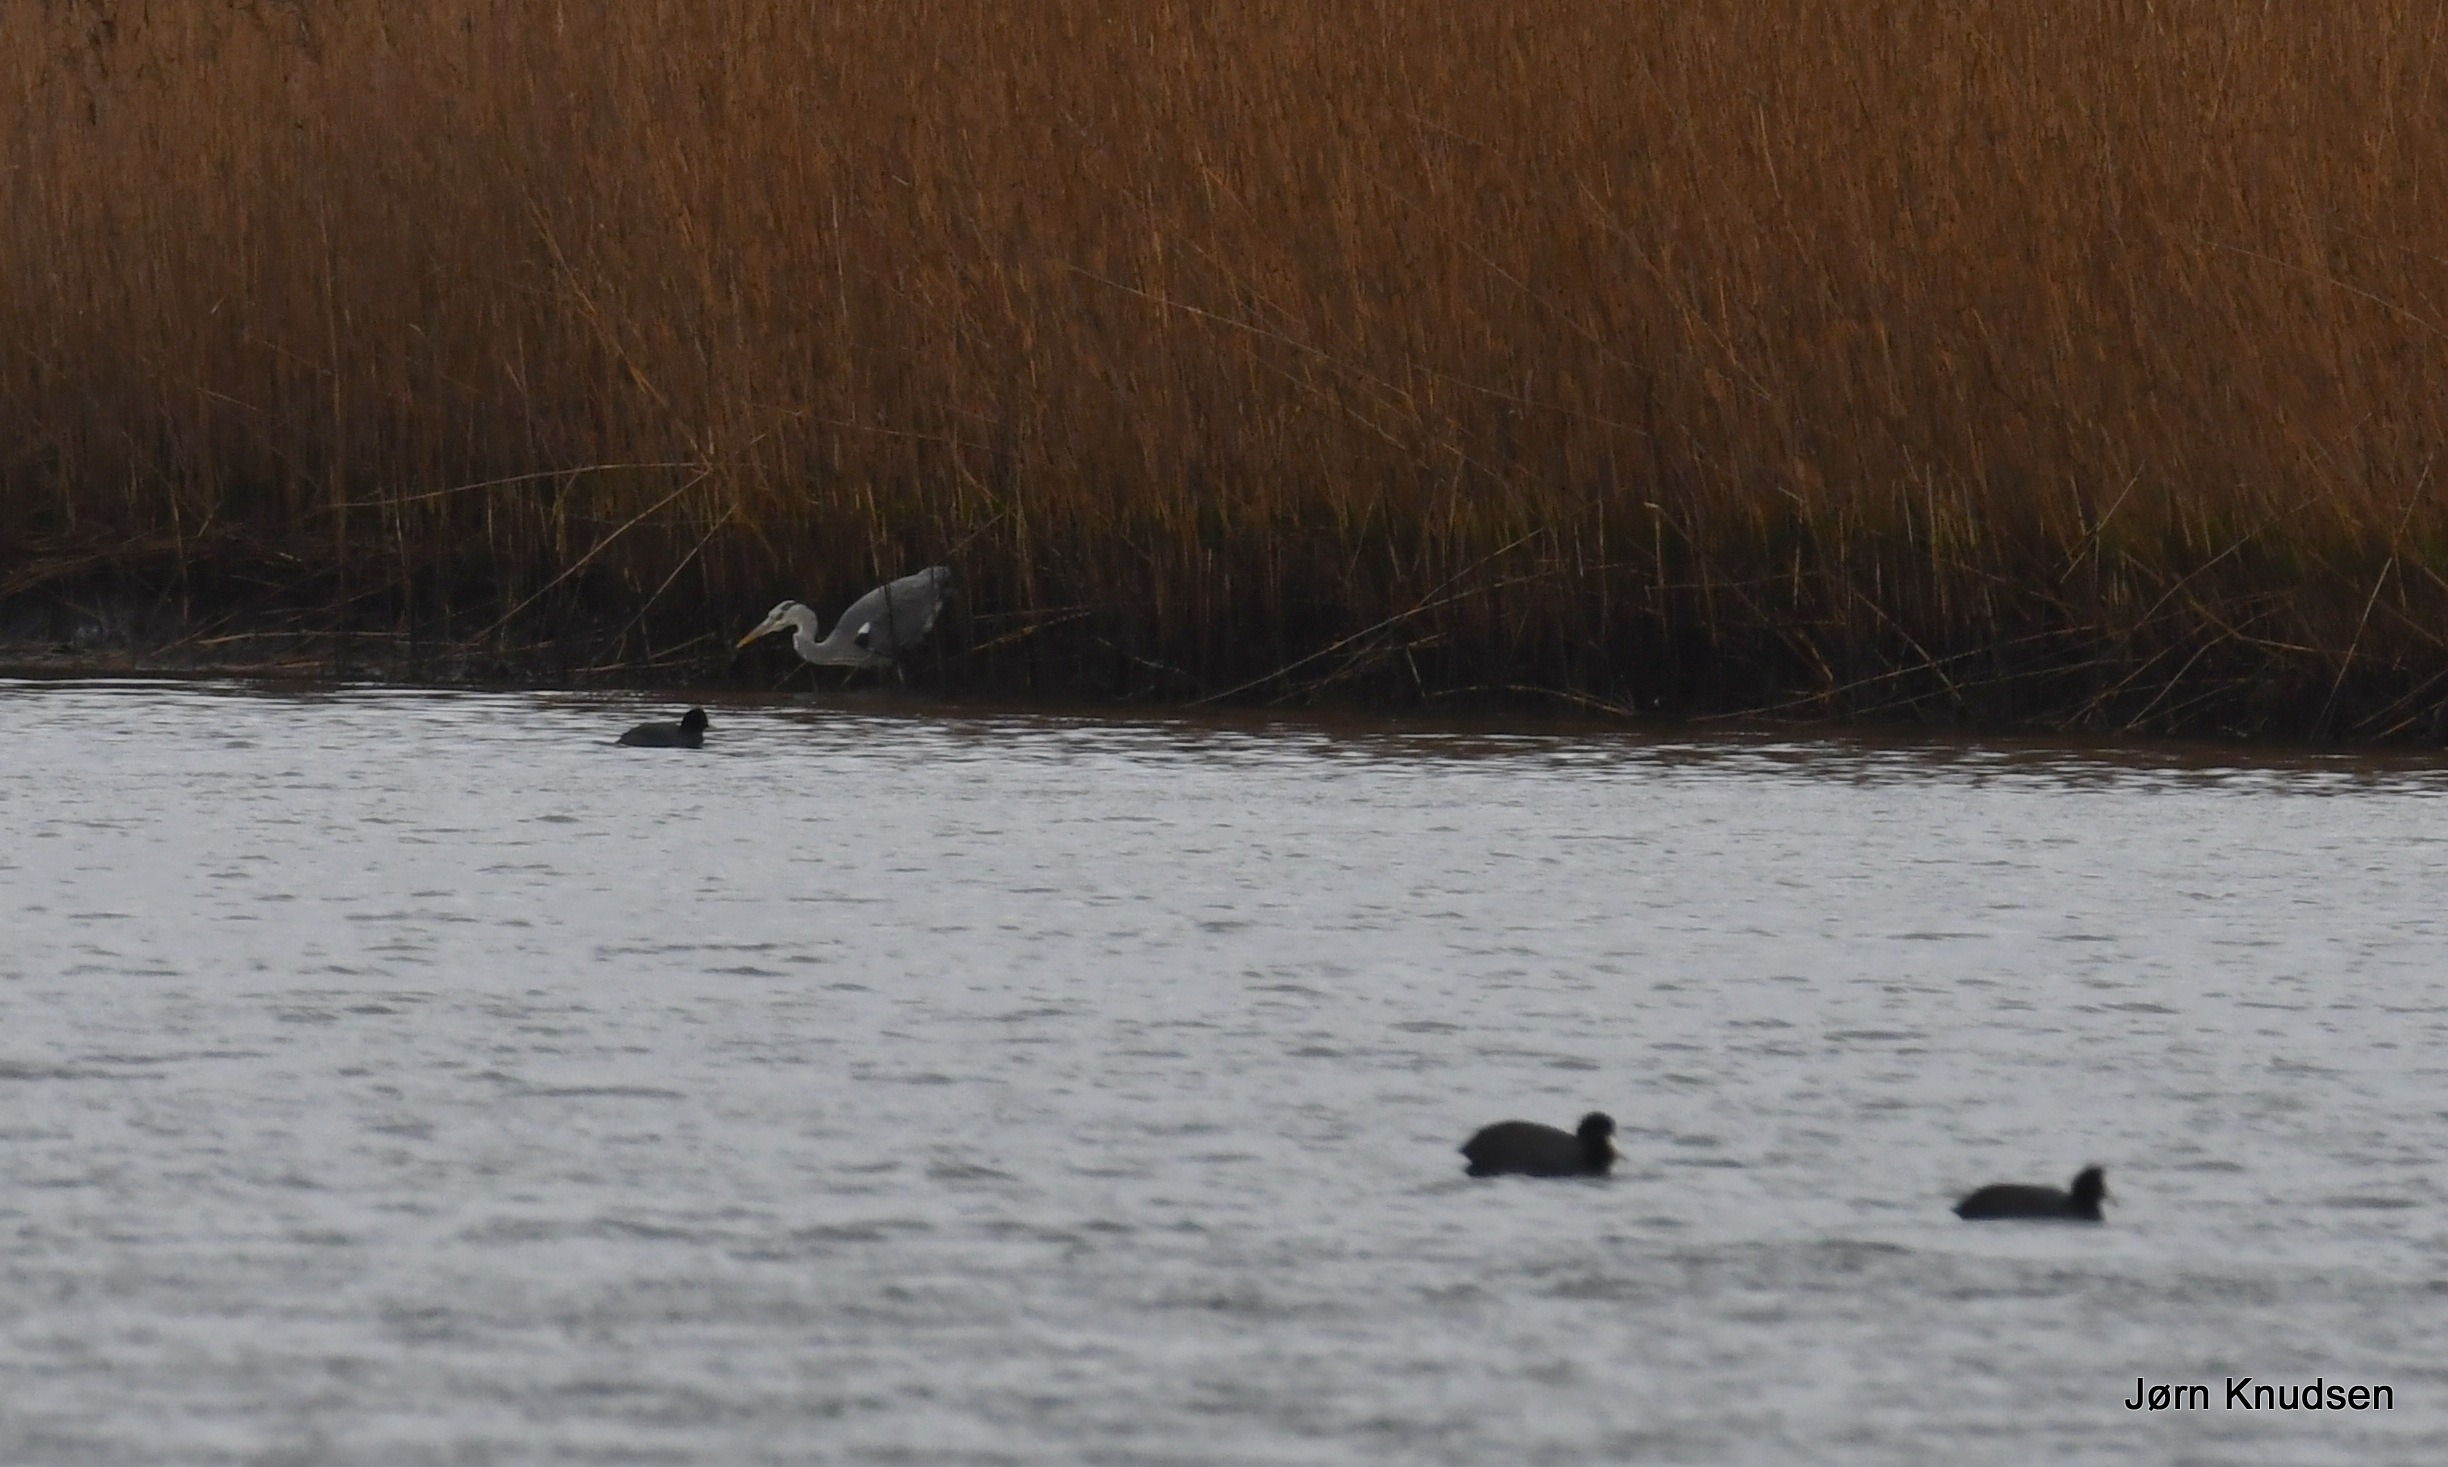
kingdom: Animalia
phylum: Chordata
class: Aves
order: Pelecaniformes
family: Ardeidae
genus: Ardea
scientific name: Ardea cinerea
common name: Fiskehejre
